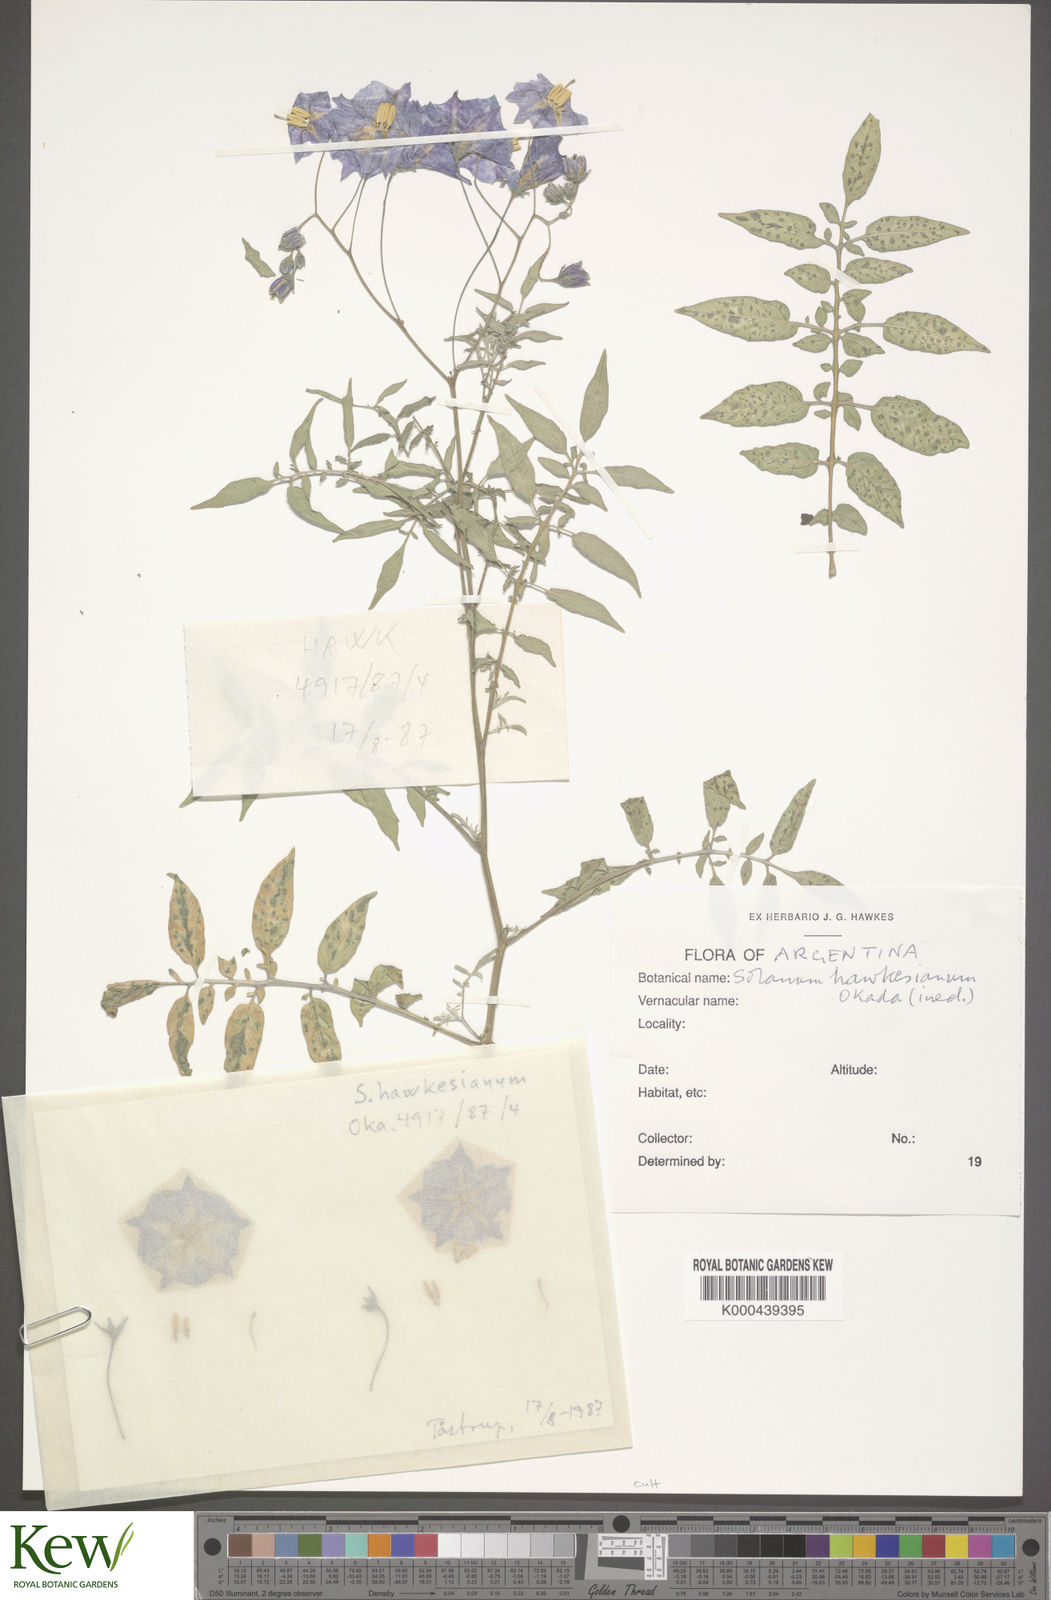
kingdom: Plantae
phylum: Tracheophyta
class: Magnoliopsida
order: Solanales
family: Solanaceae
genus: Solanum
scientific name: Solanum
